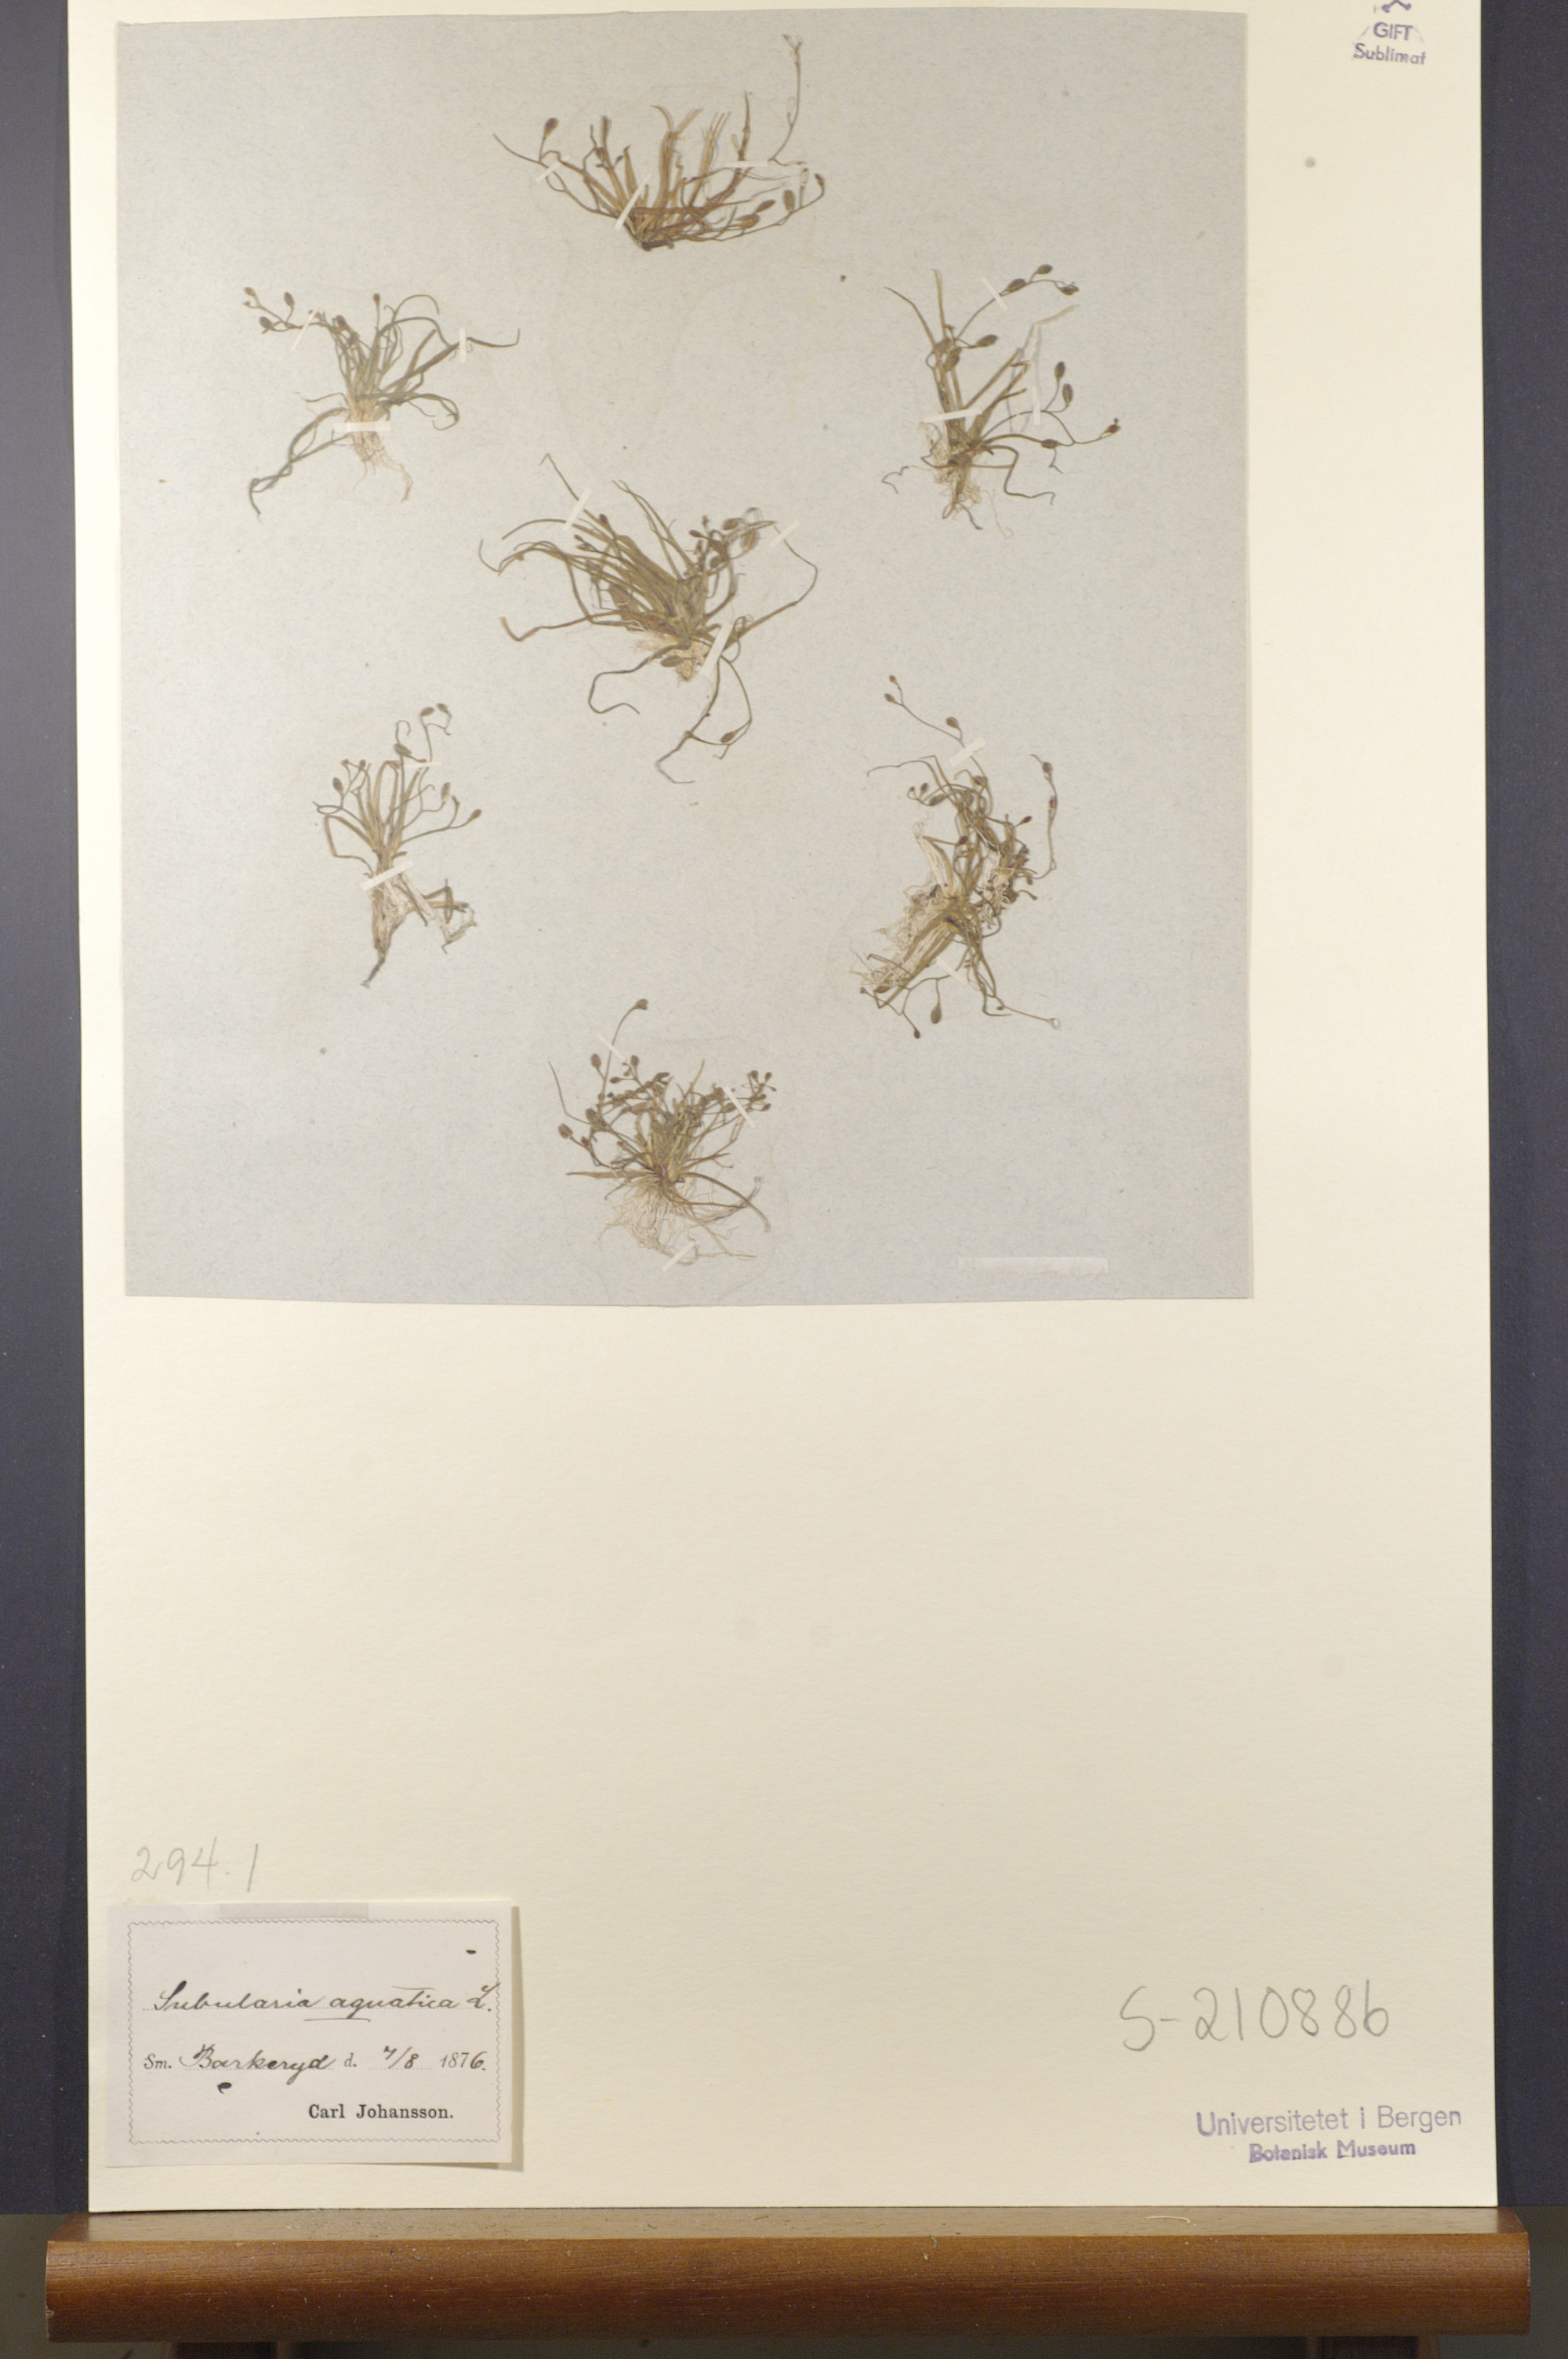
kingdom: Plantae
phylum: Tracheophyta
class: Magnoliopsida
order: Brassicales
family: Brassicaceae
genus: Subularia
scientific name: Subularia aquatica
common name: Awlwort
